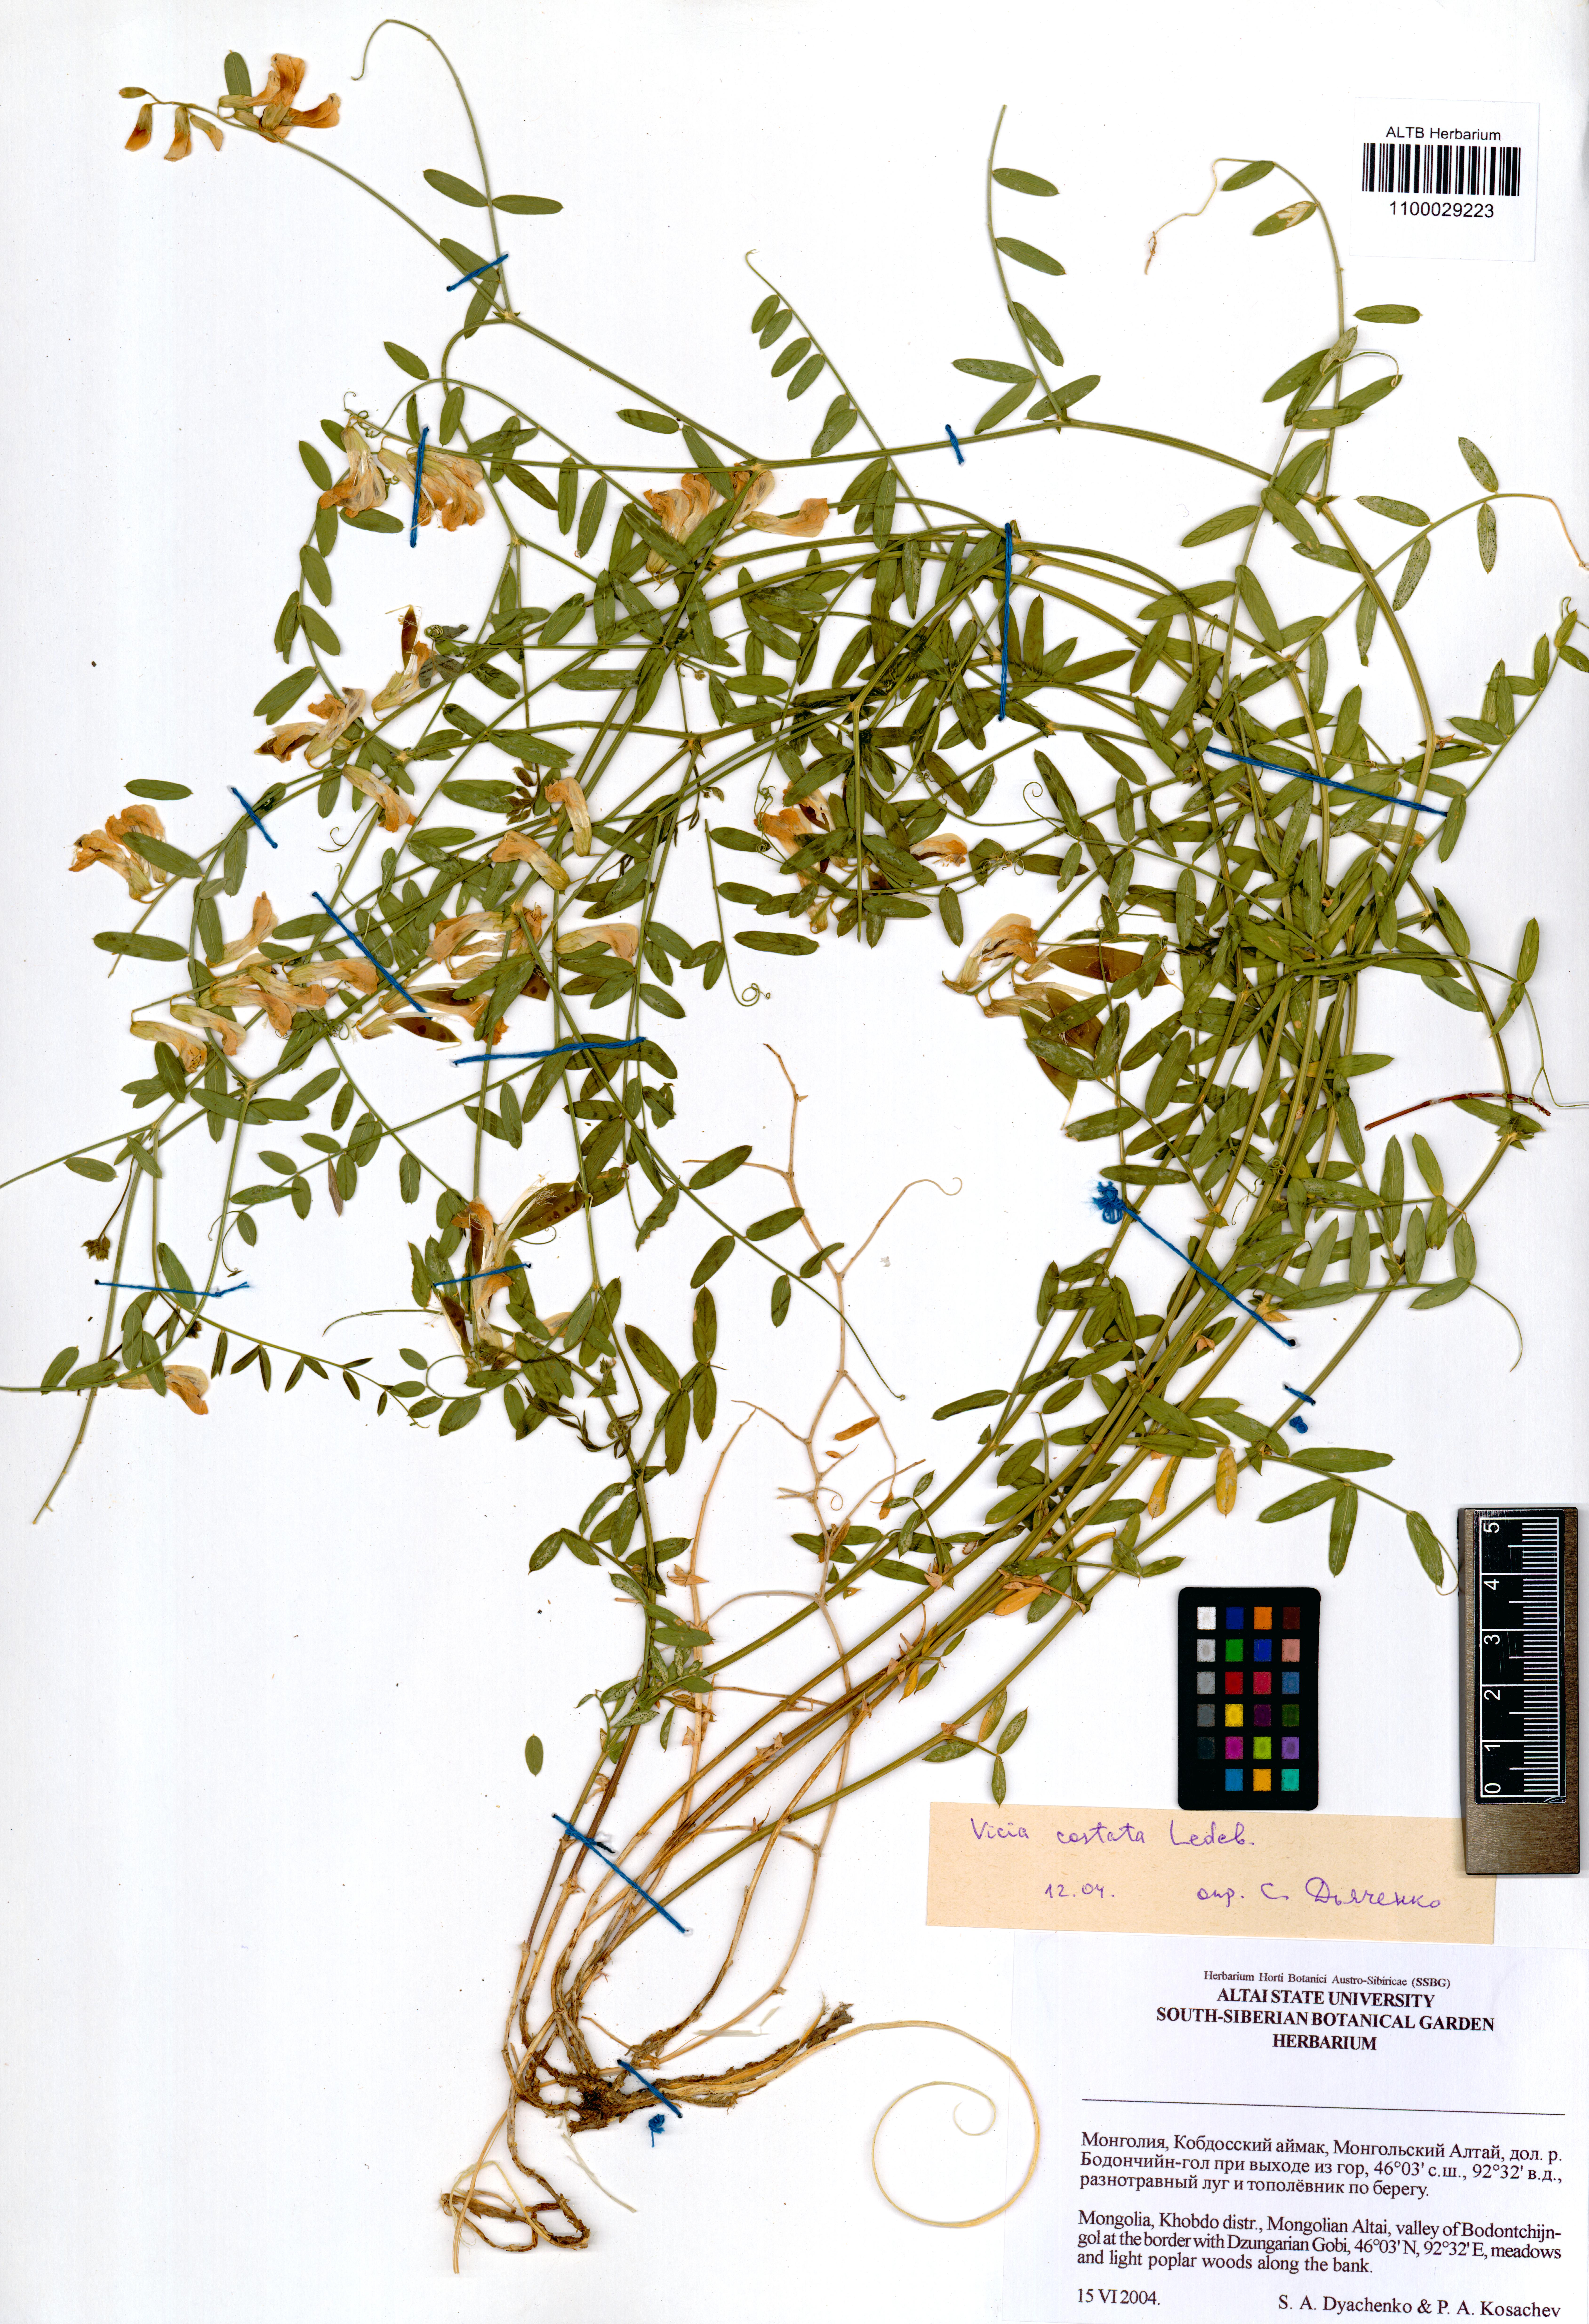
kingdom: Plantae
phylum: Tracheophyta
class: Magnoliopsida
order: Fabales
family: Fabaceae
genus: Vicia
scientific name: Vicia costata
